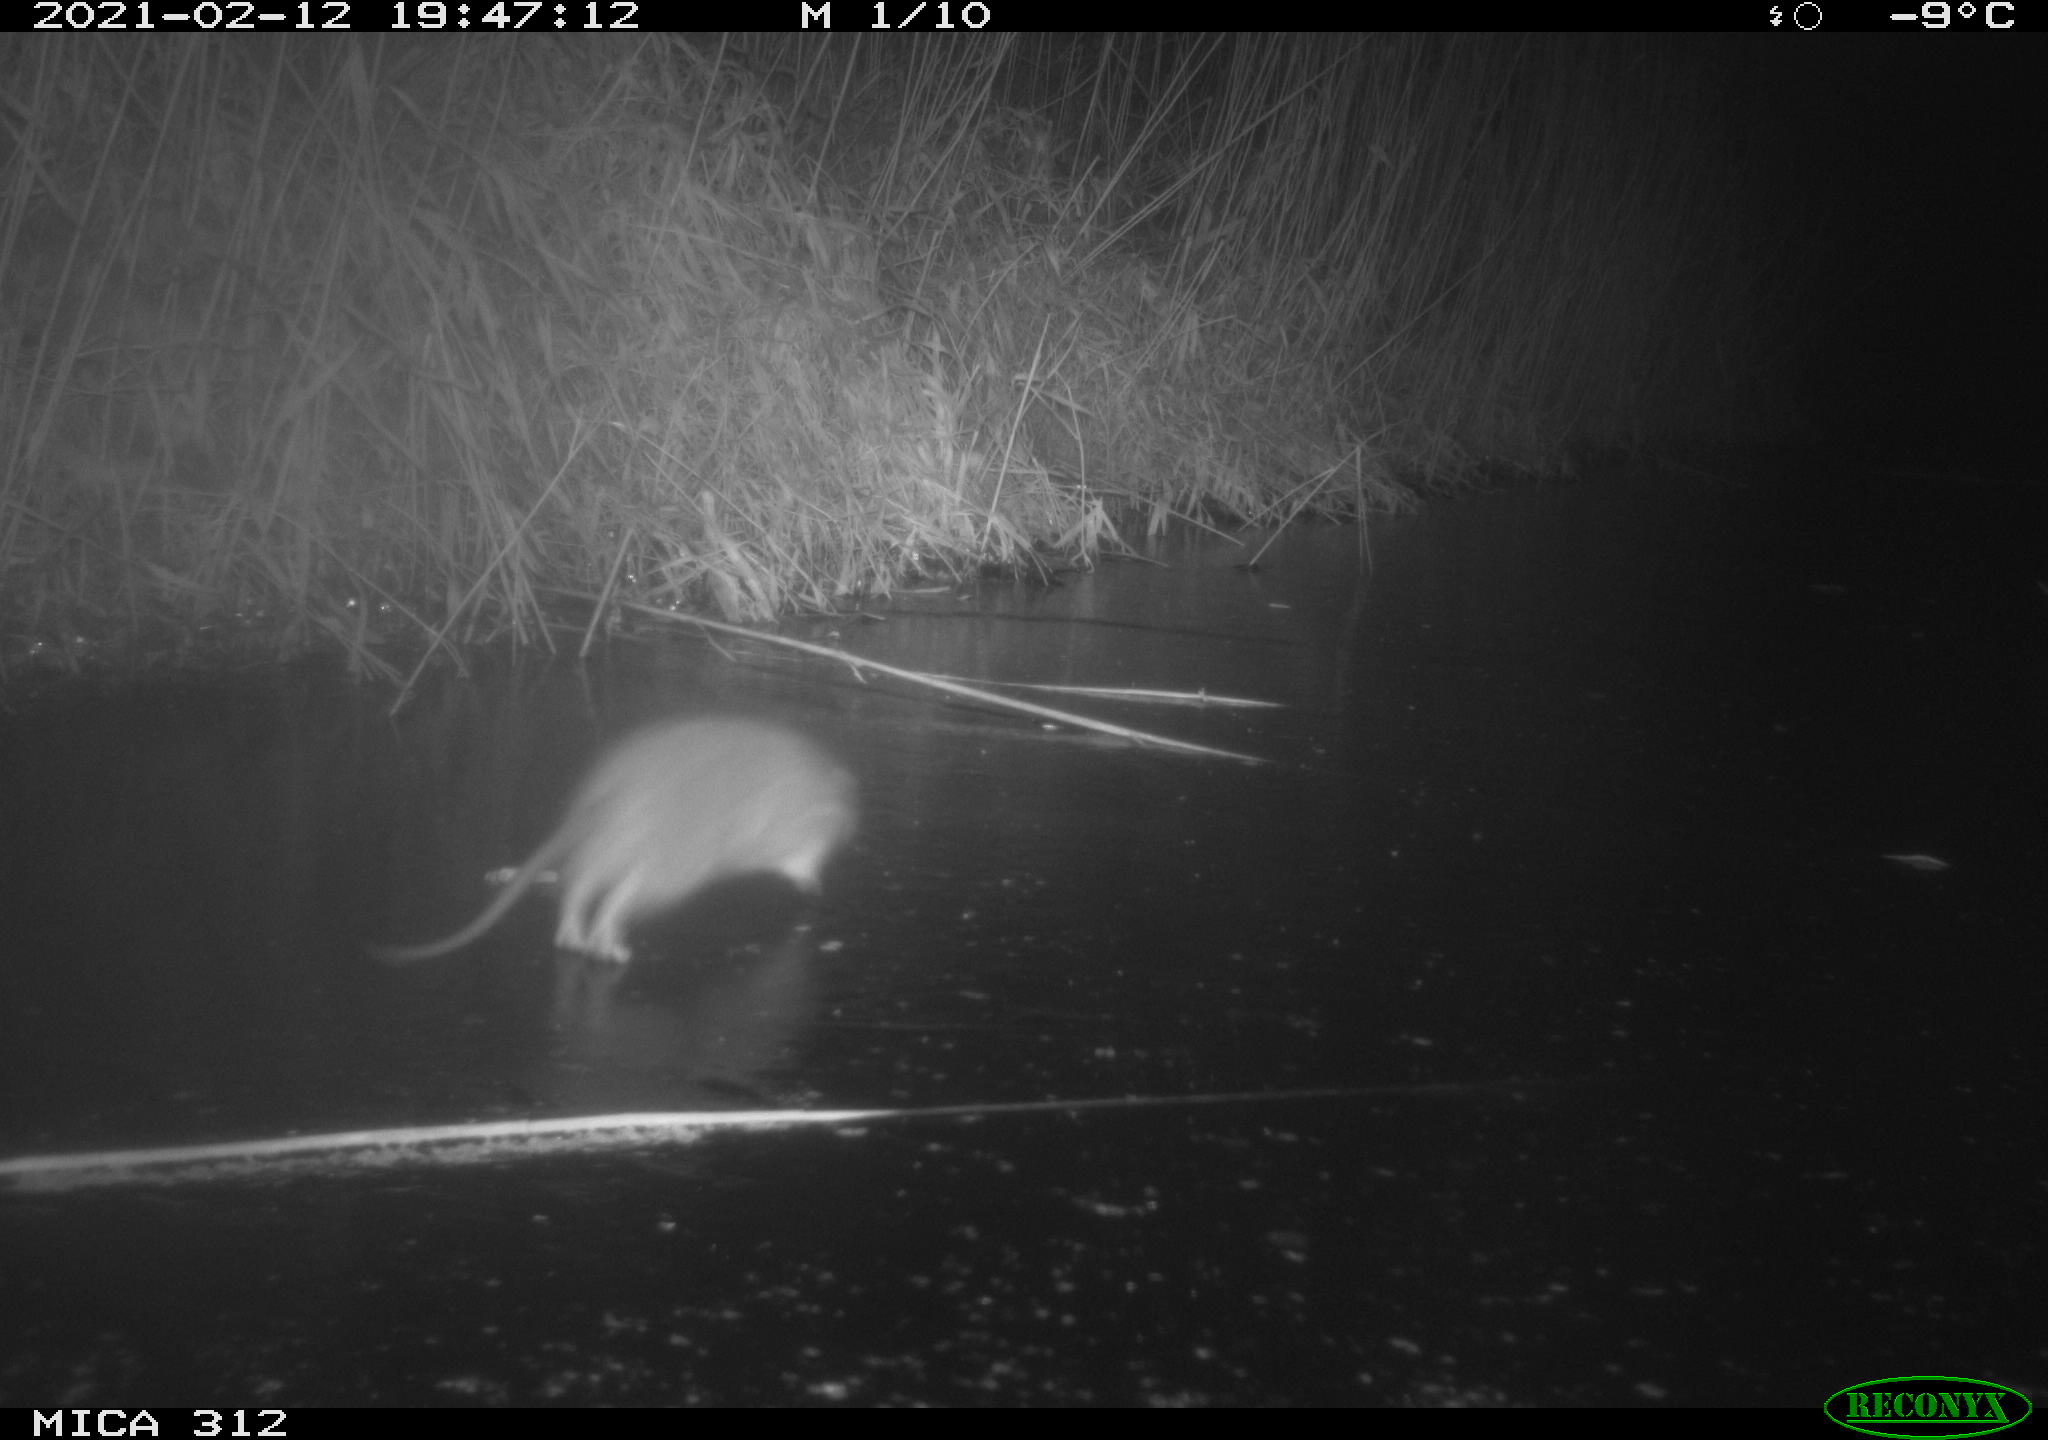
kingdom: Animalia
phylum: Chordata
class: Mammalia
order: Rodentia
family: Muridae
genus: Rattus
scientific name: Rattus norvegicus
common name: Brown rat
